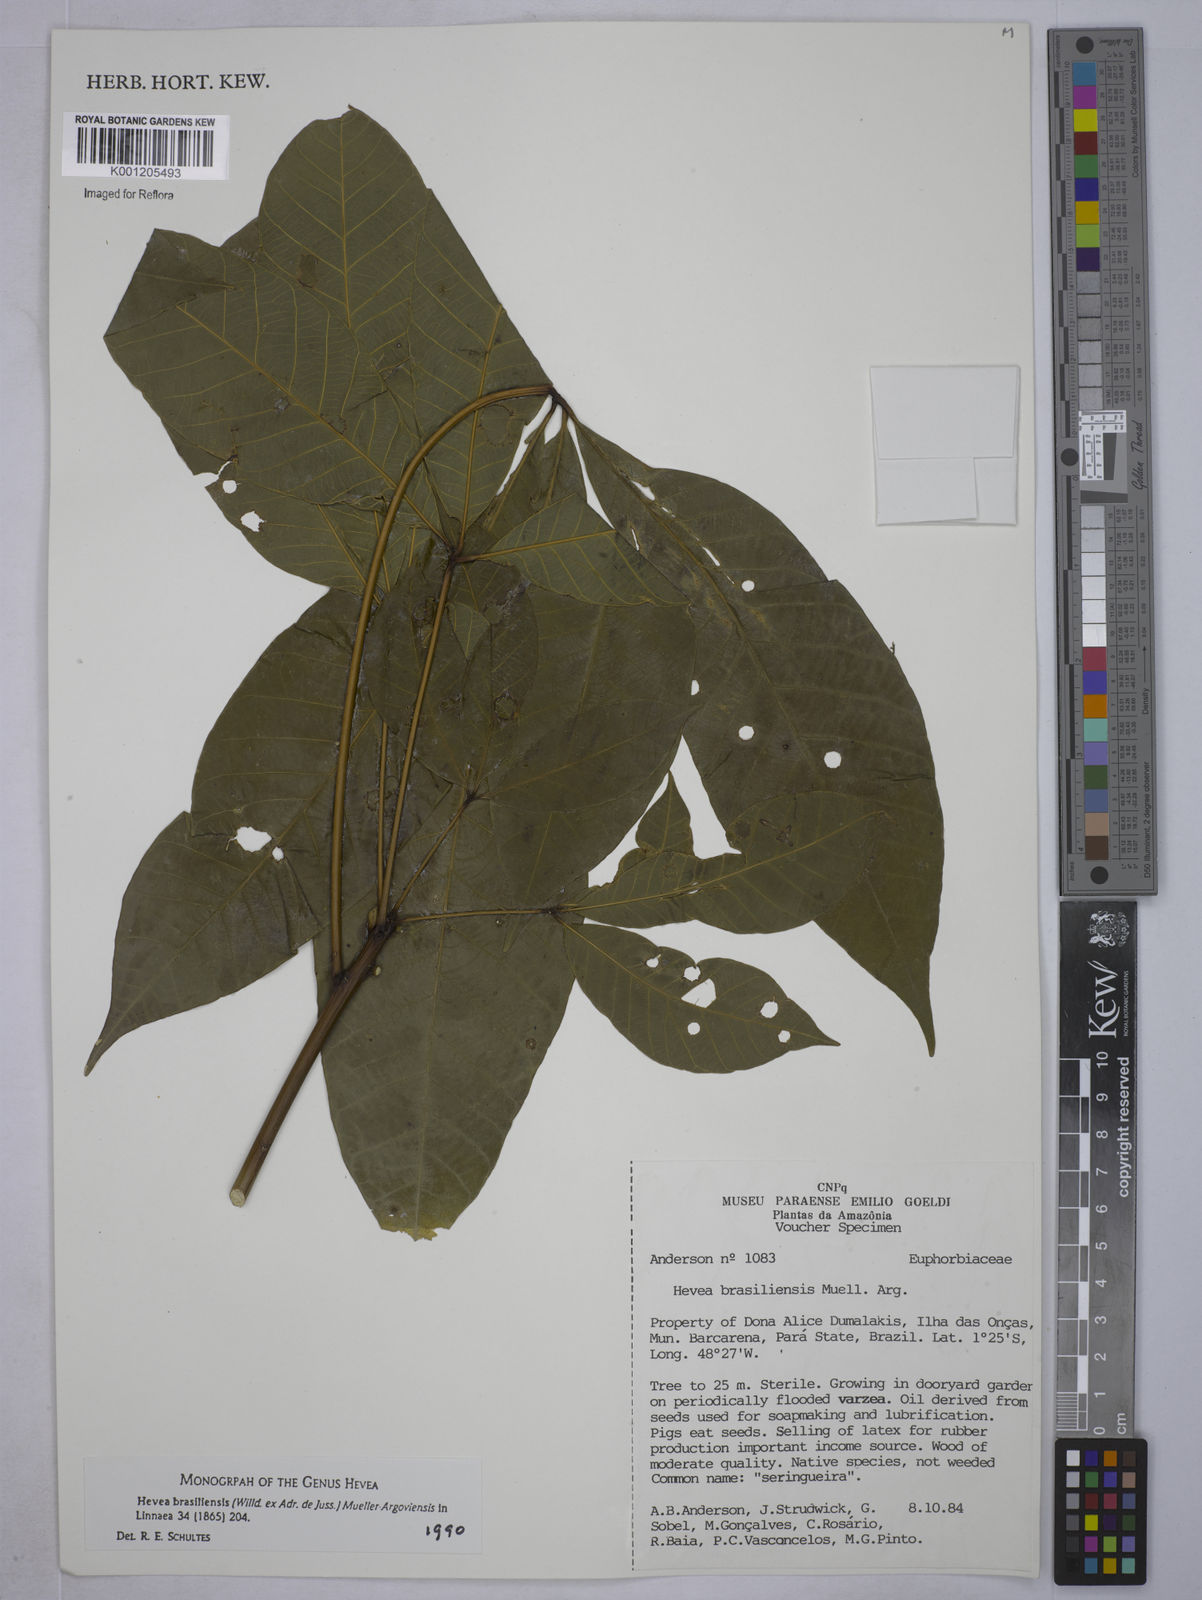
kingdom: Plantae
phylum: Tracheophyta
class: Magnoliopsida
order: Malpighiales
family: Euphorbiaceae
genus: Hevea
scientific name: Hevea
